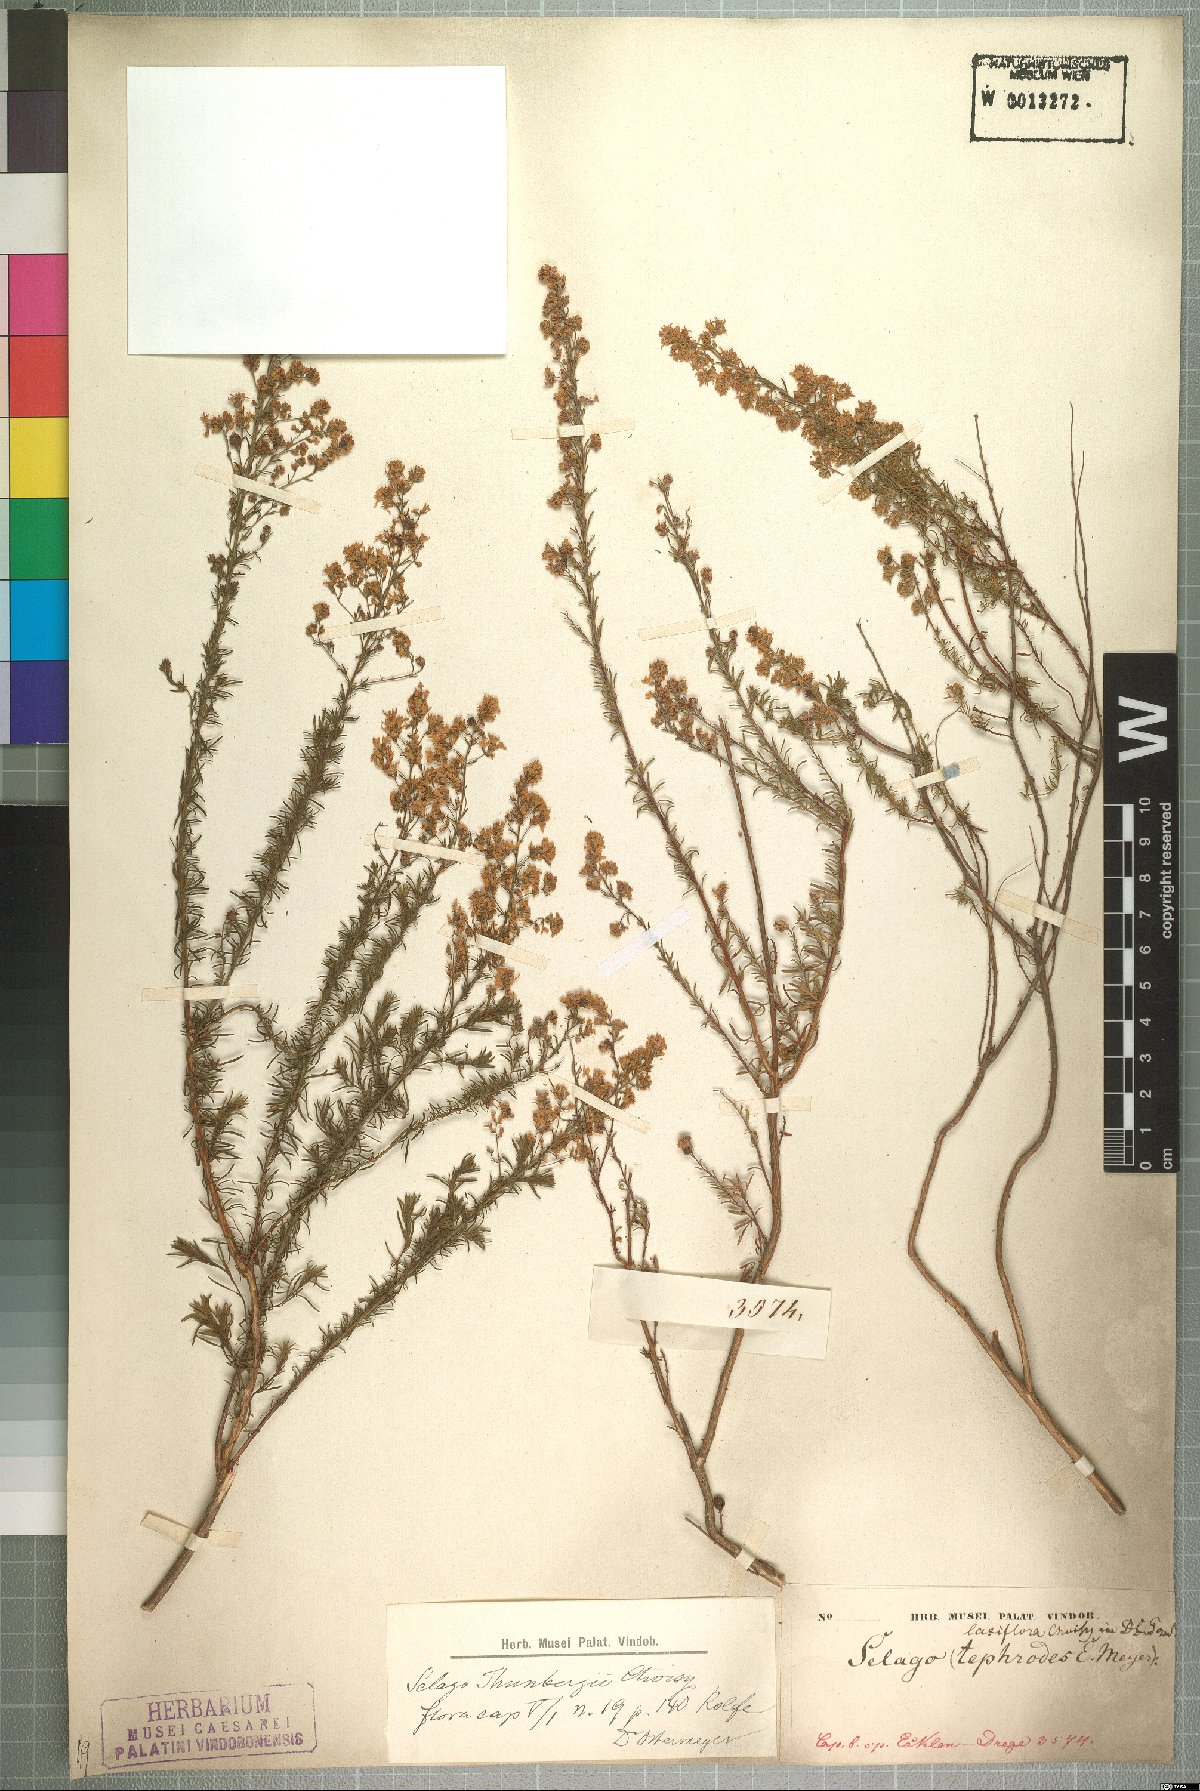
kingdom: Plantae
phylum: Tracheophyta
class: Magnoliopsida
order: Lamiales
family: Scrophulariaceae
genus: Selago
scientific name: Selago canescens
